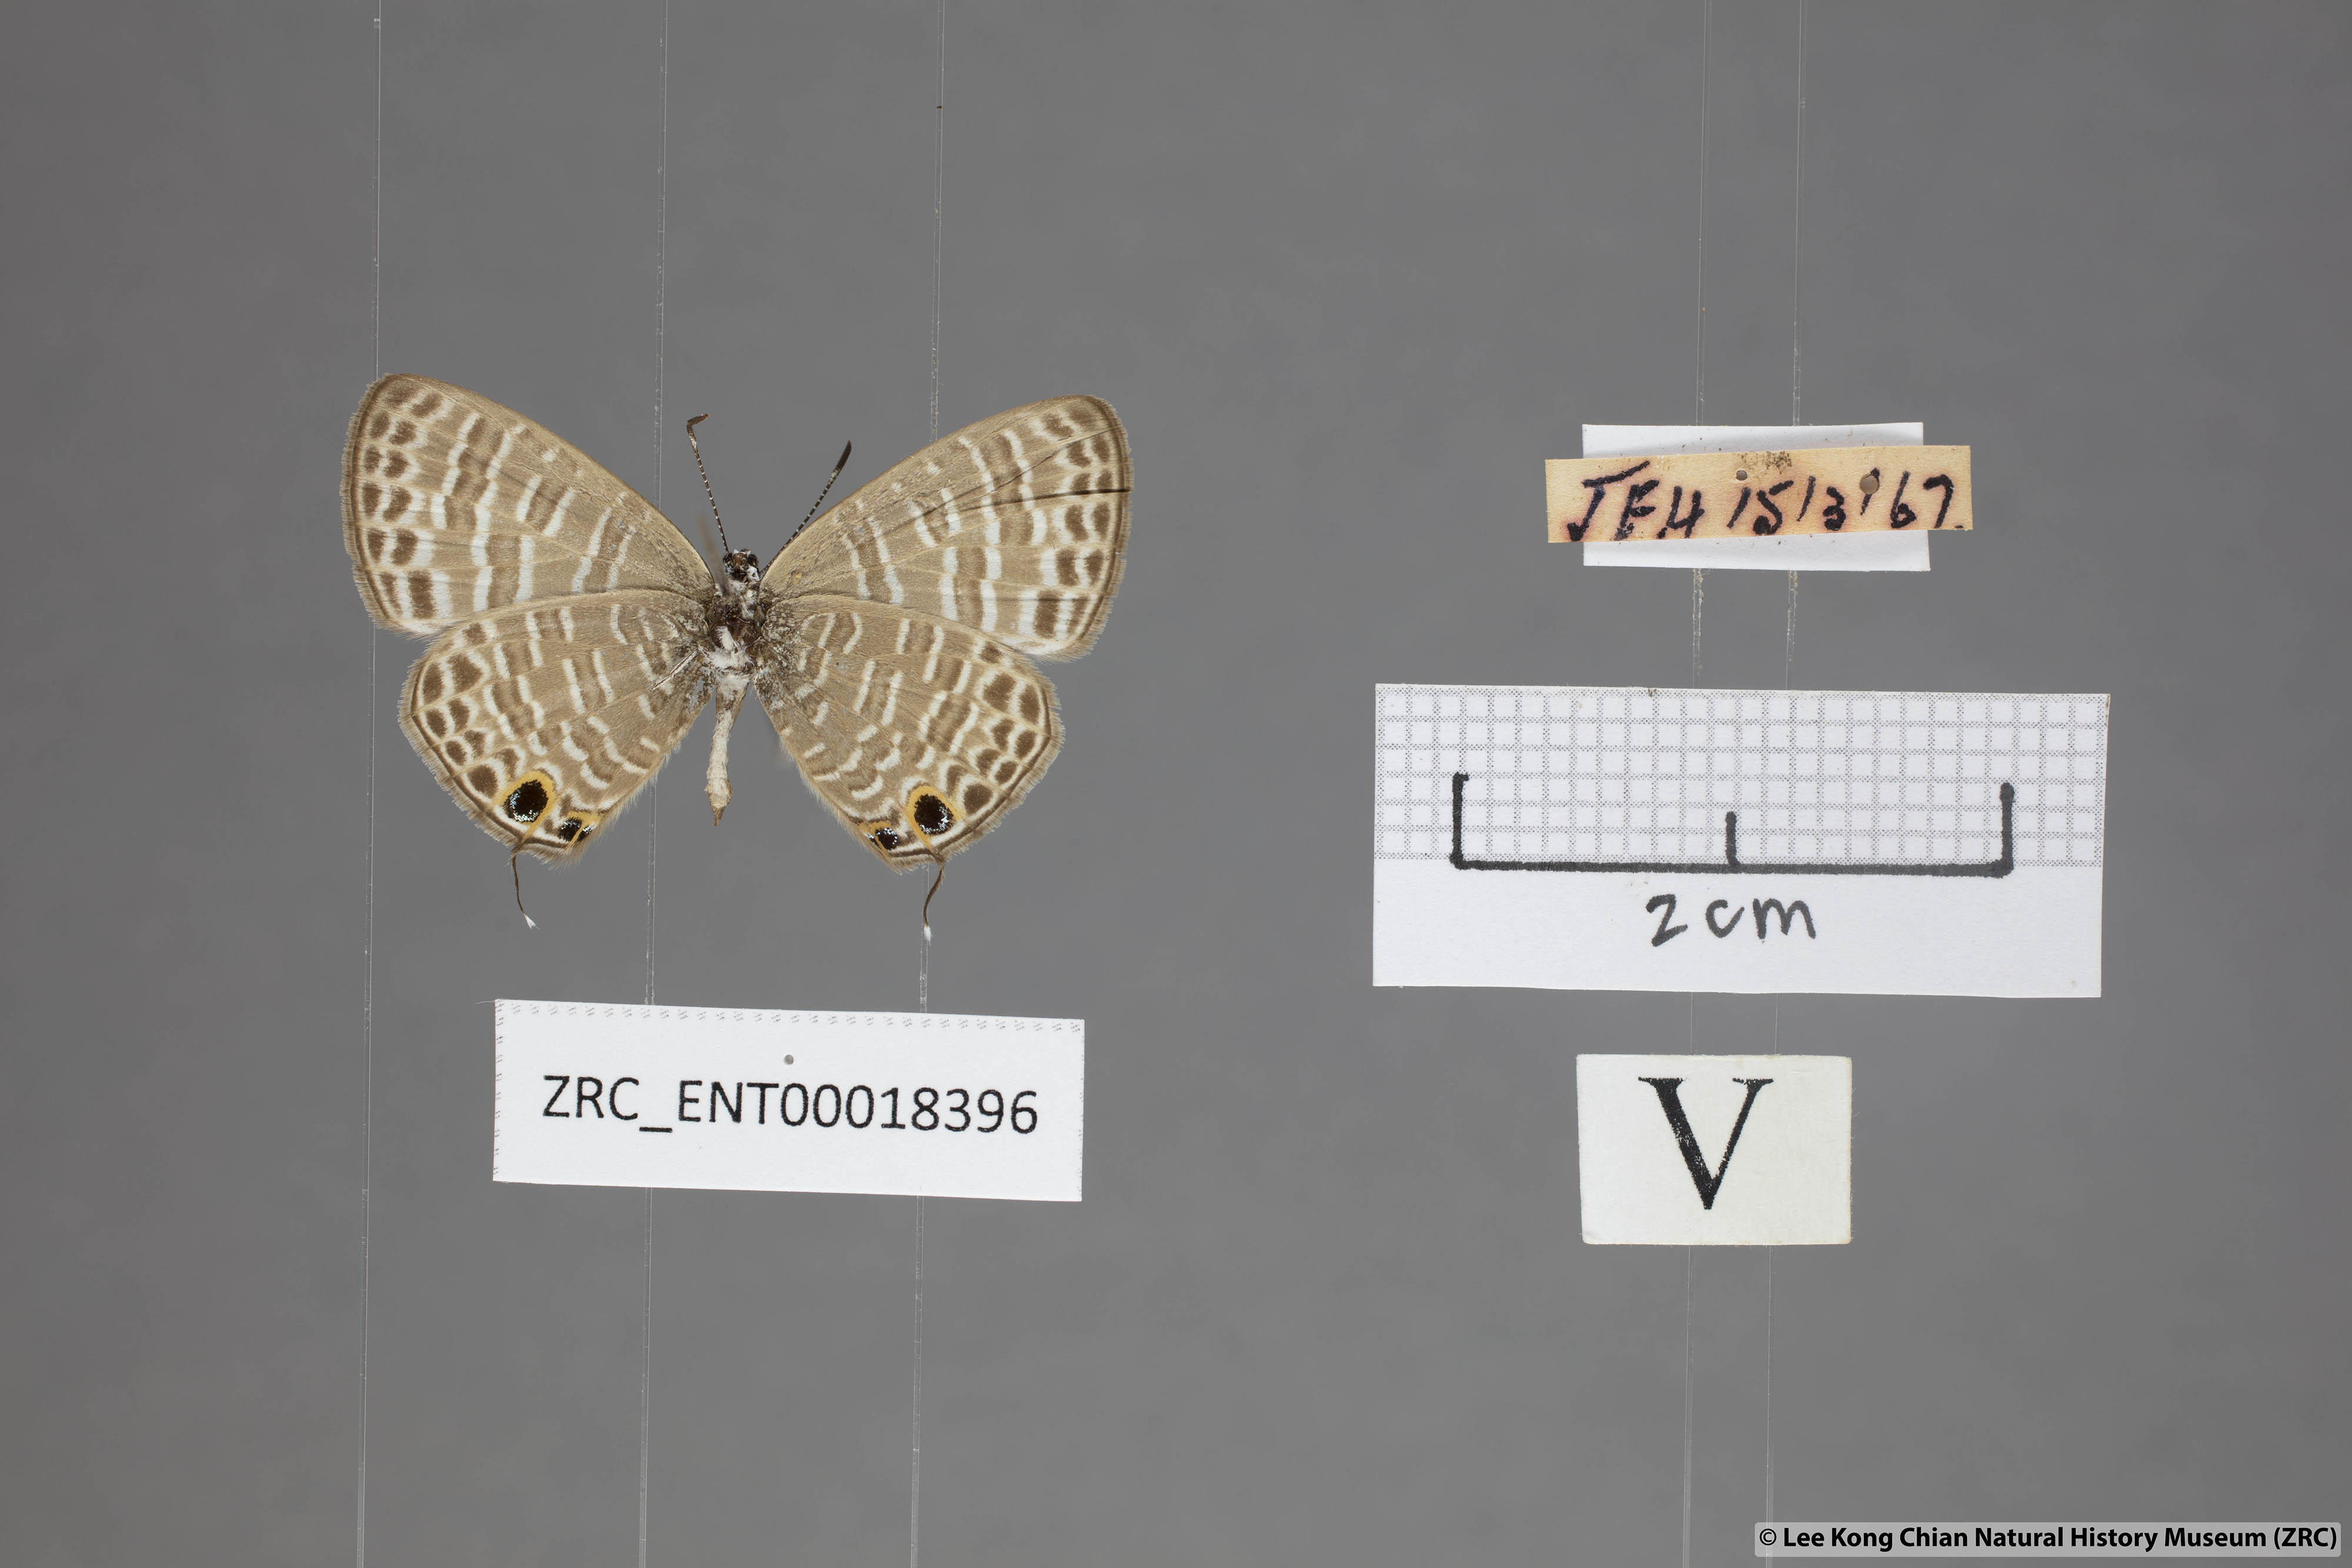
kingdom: Animalia
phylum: Arthropoda
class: Insecta
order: Lepidoptera
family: Lycaenidae
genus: Nacaduba
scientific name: Nacaduba kurava
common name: Transparent 6-line blue
